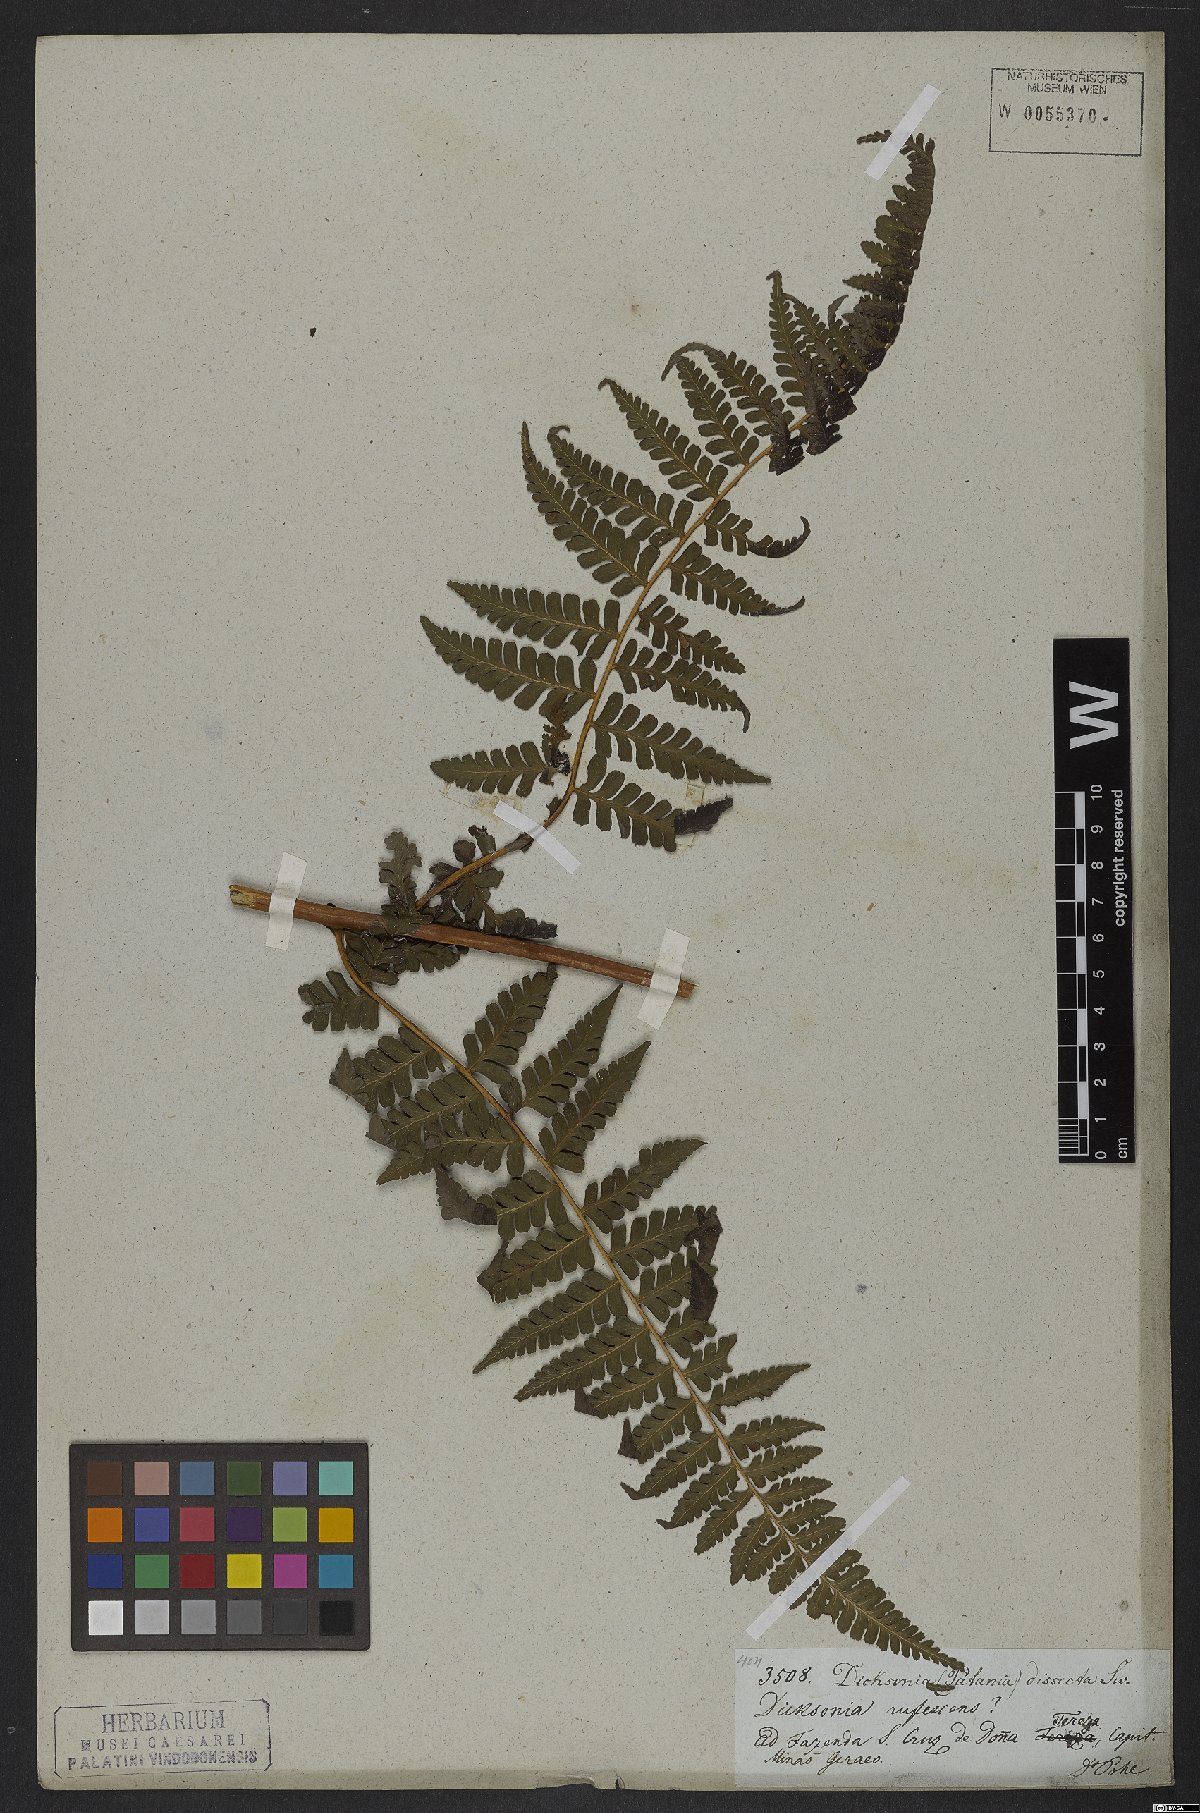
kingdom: Plantae
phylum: Tracheophyta
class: Polypodiopsida
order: Polypodiales
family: Dennstaedtiaceae
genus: Dennstaedtia
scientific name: Dennstaedtia dissecta
